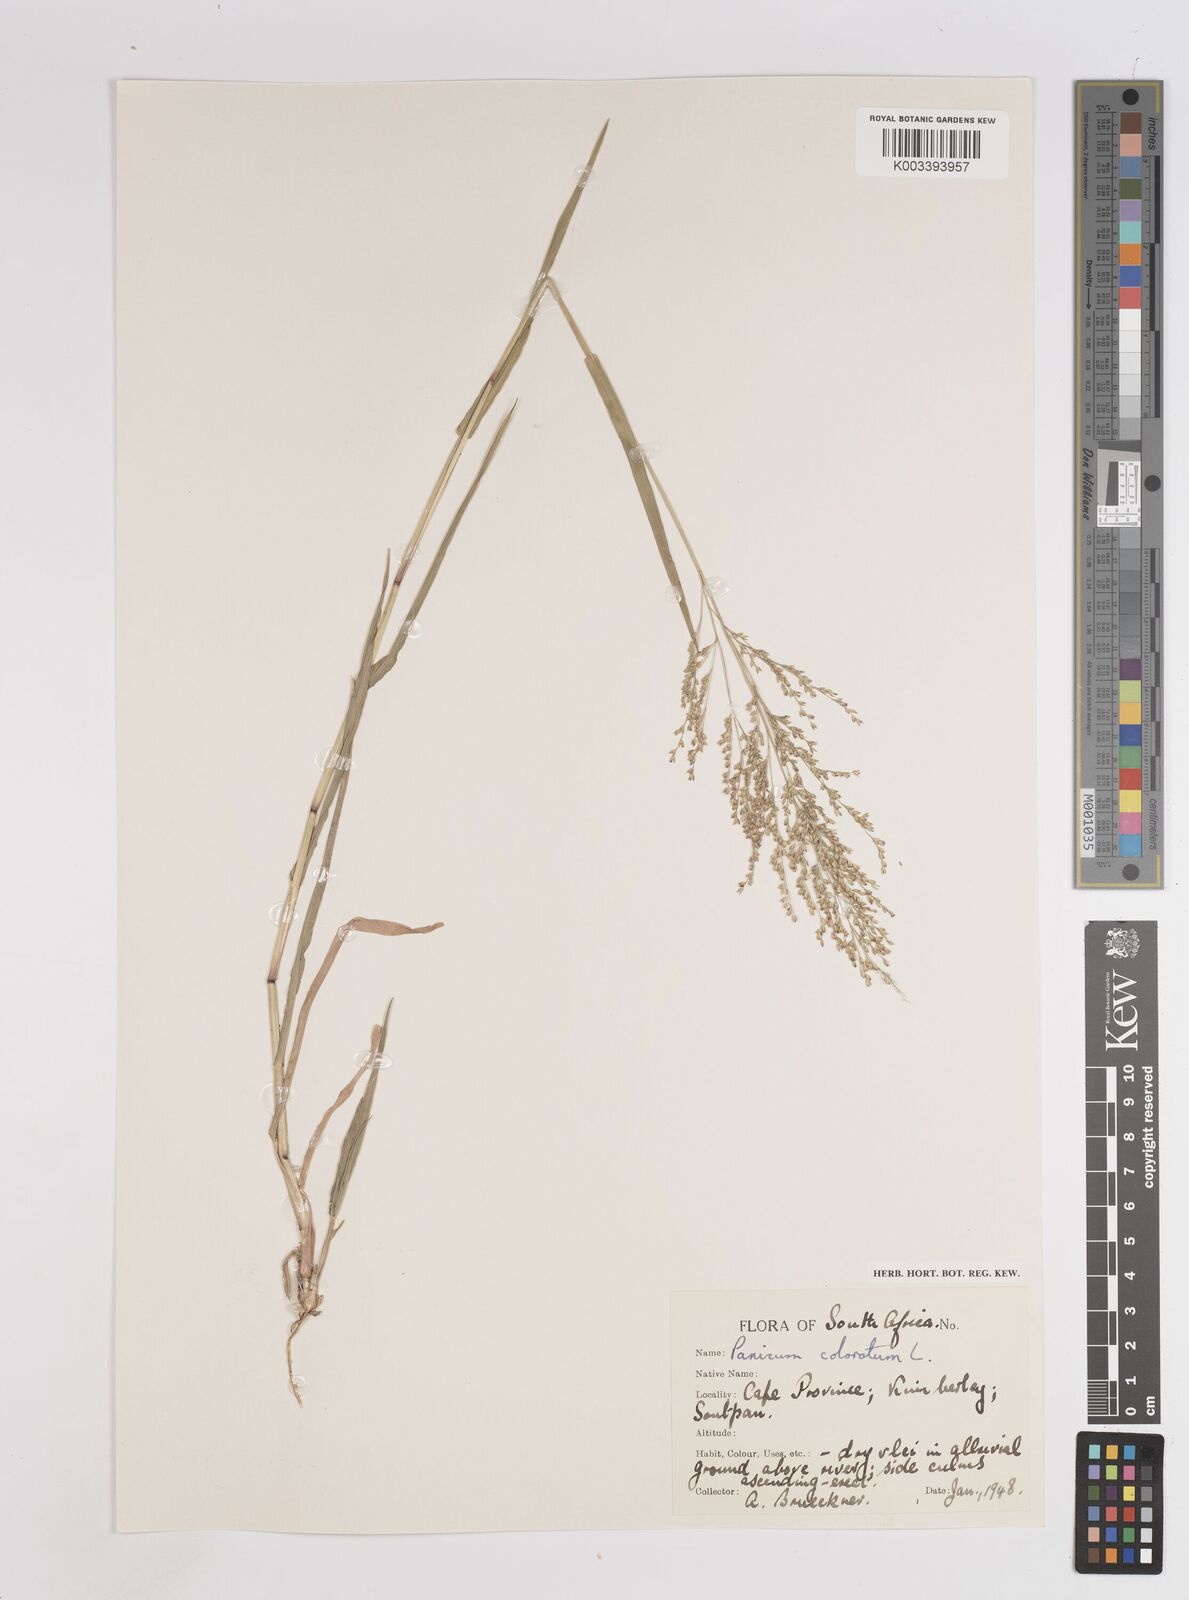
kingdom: Plantae
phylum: Tracheophyta
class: Liliopsida
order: Poales
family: Poaceae
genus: Panicum
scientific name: Panicum coloratum
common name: Kleingrass
